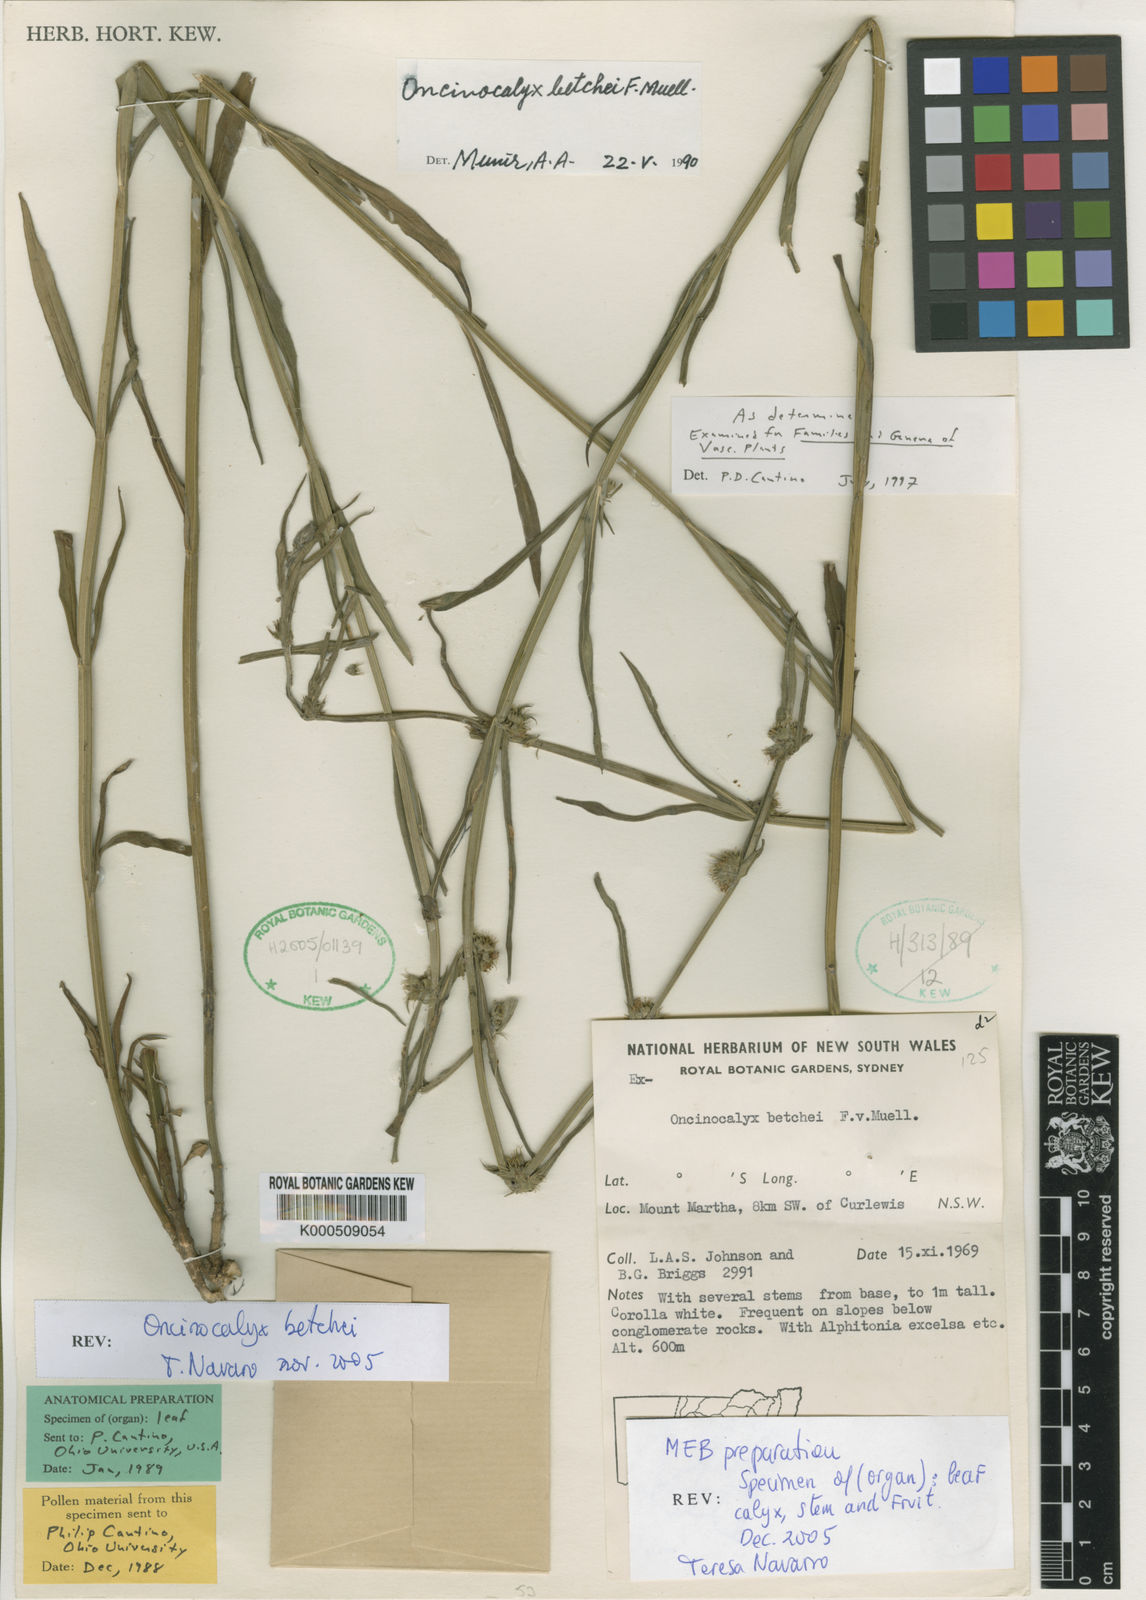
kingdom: Plantae
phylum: Tracheophyta
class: Magnoliopsida
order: Lamiales
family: Lamiaceae
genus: Teucrium
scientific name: Teucrium betchei
